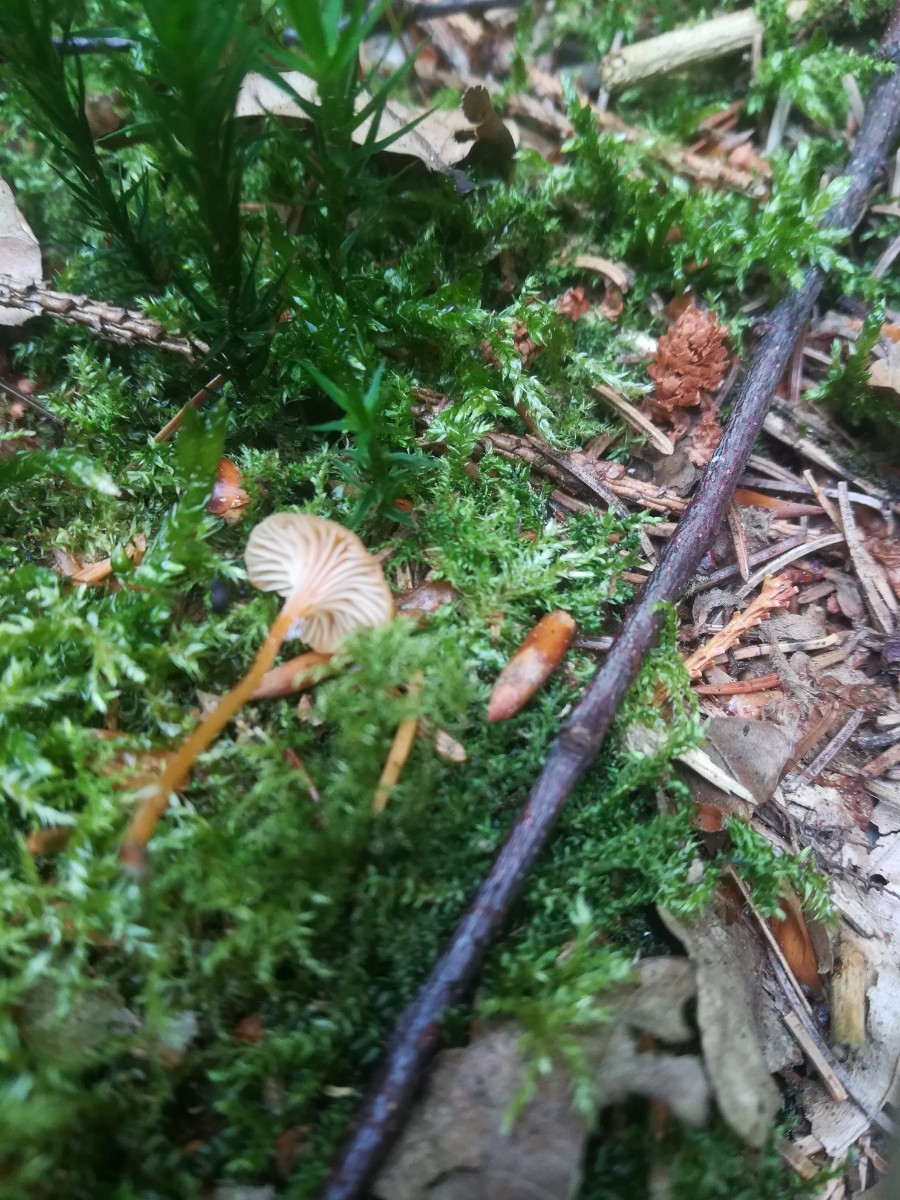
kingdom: Fungi
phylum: Basidiomycota
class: Agaricomycetes
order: Hymenochaetales
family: Rickenellaceae
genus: Rickenella
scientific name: Rickenella fibula
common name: orange mosnavlehat
